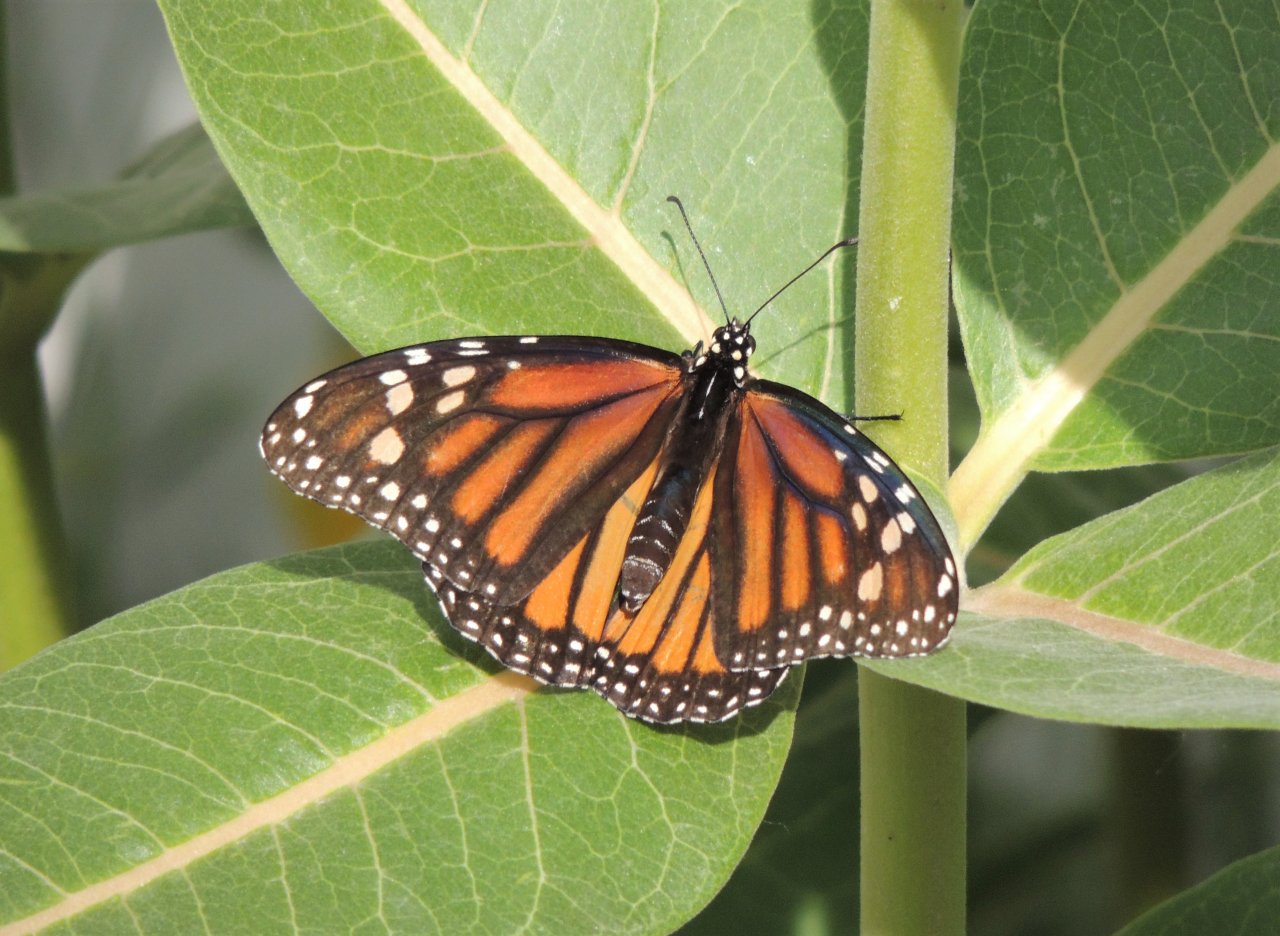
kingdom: Animalia
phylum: Arthropoda
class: Insecta
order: Lepidoptera
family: Nymphalidae
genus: Danaus
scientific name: Danaus plexippus
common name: Monarch
